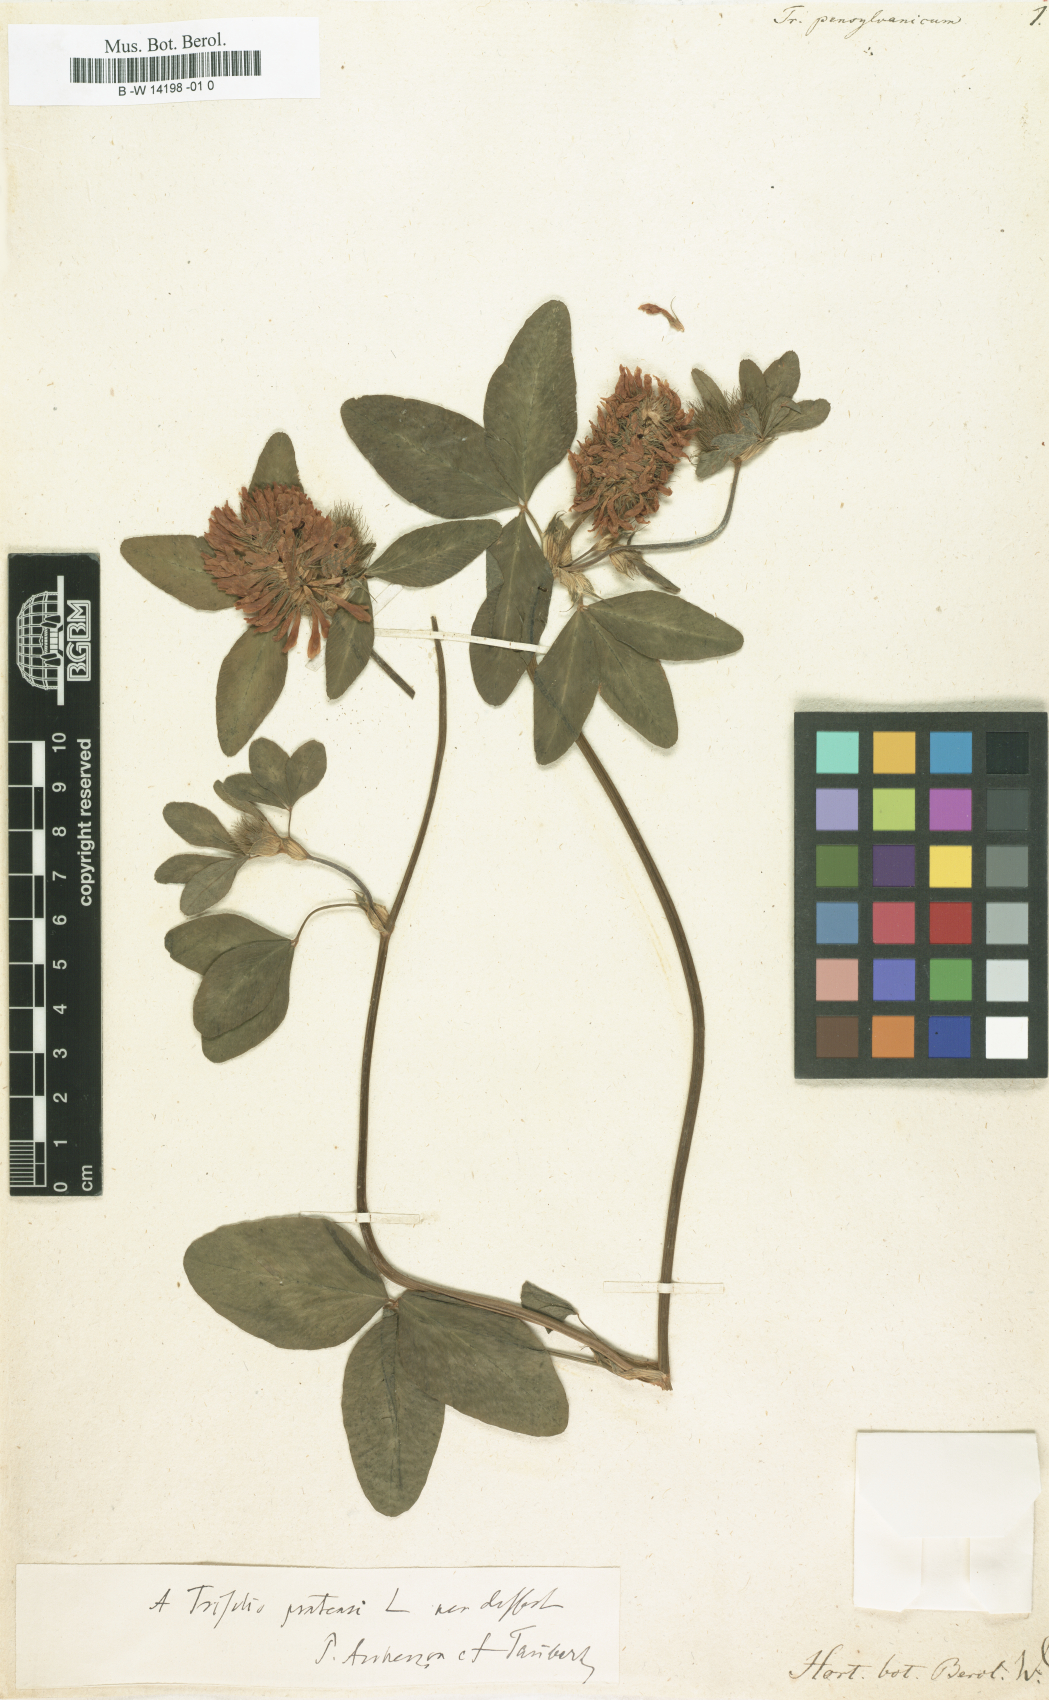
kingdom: Plantae
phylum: Tracheophyta
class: Magnoliopsida
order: Fabales
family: Fabaceae
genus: Trifolium
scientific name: Trifolium
